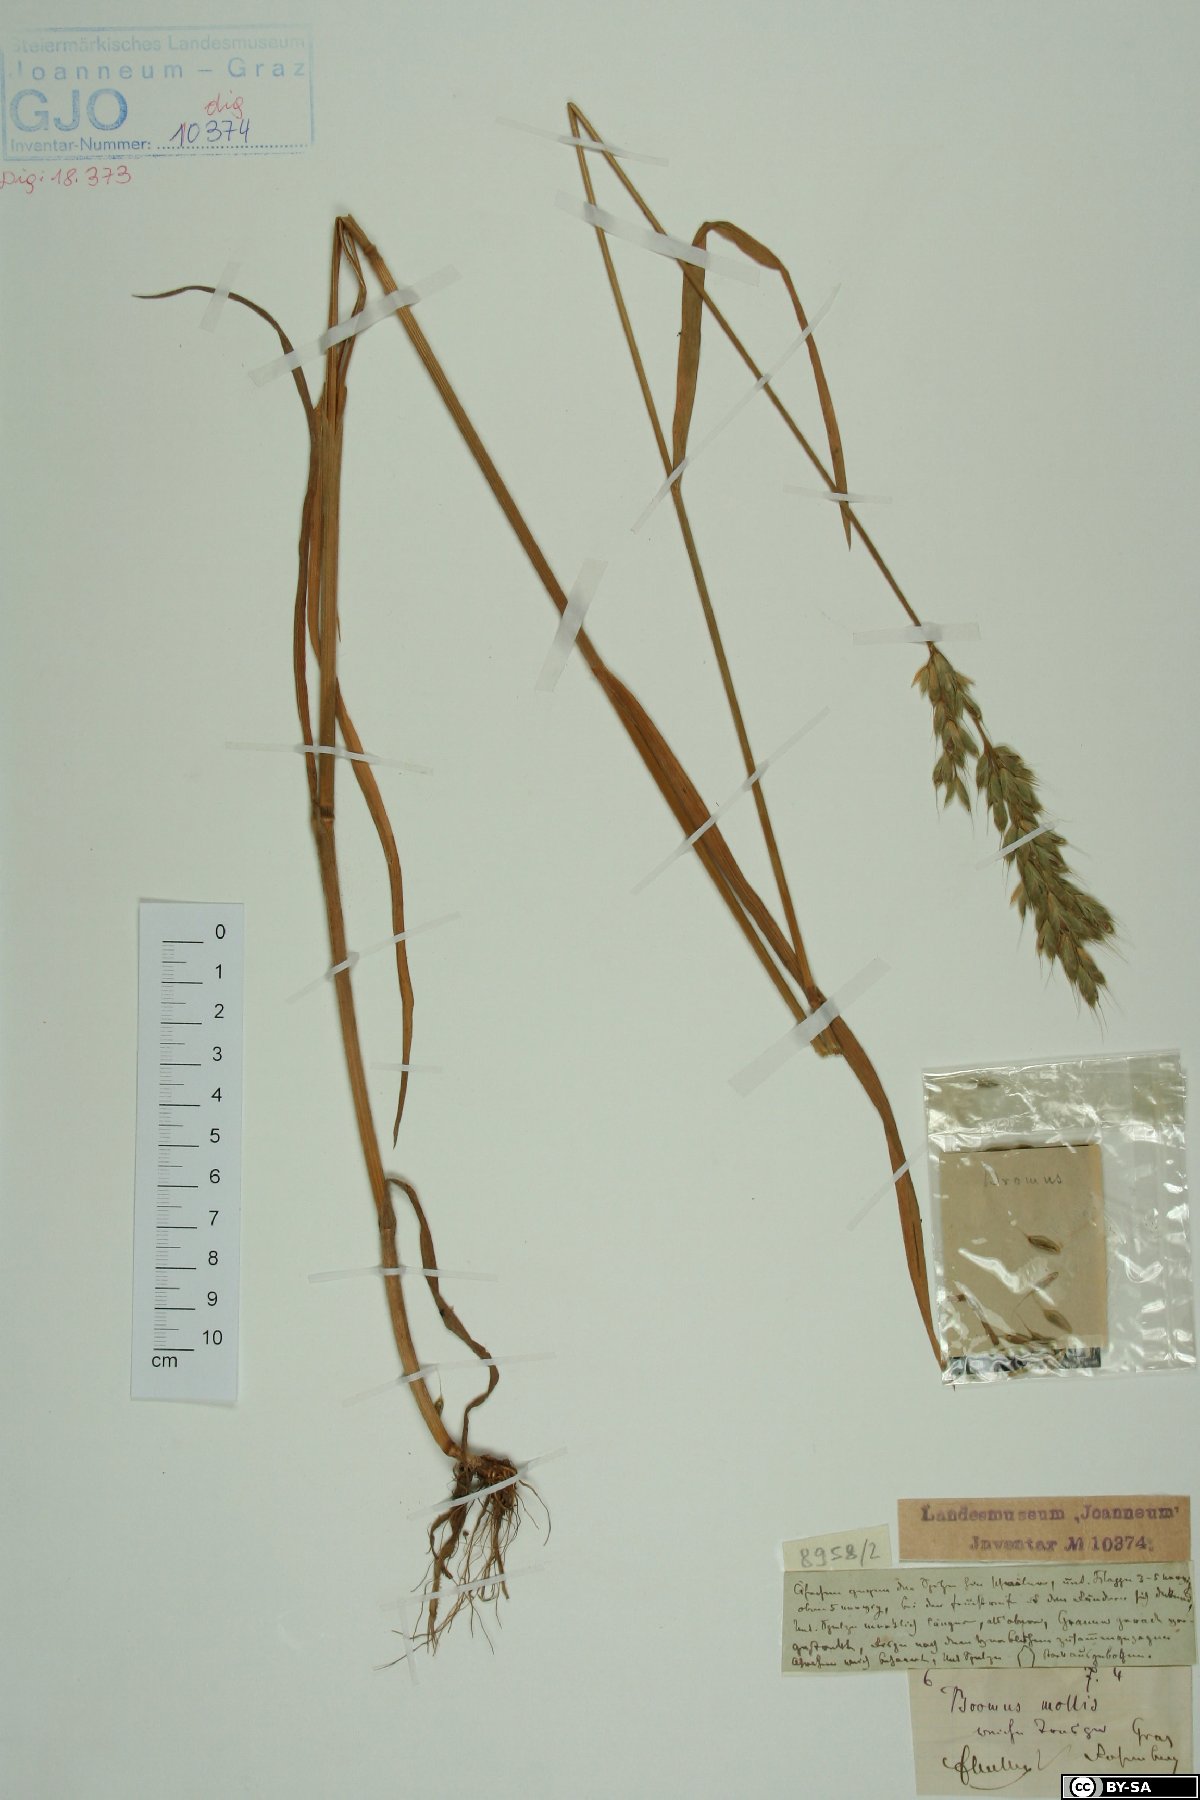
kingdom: Plantae
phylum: Tracheophyta
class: Liliopsida
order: Poales
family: Poaceae
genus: Bromus
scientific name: Bromus hordeaceus
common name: Soft brome
